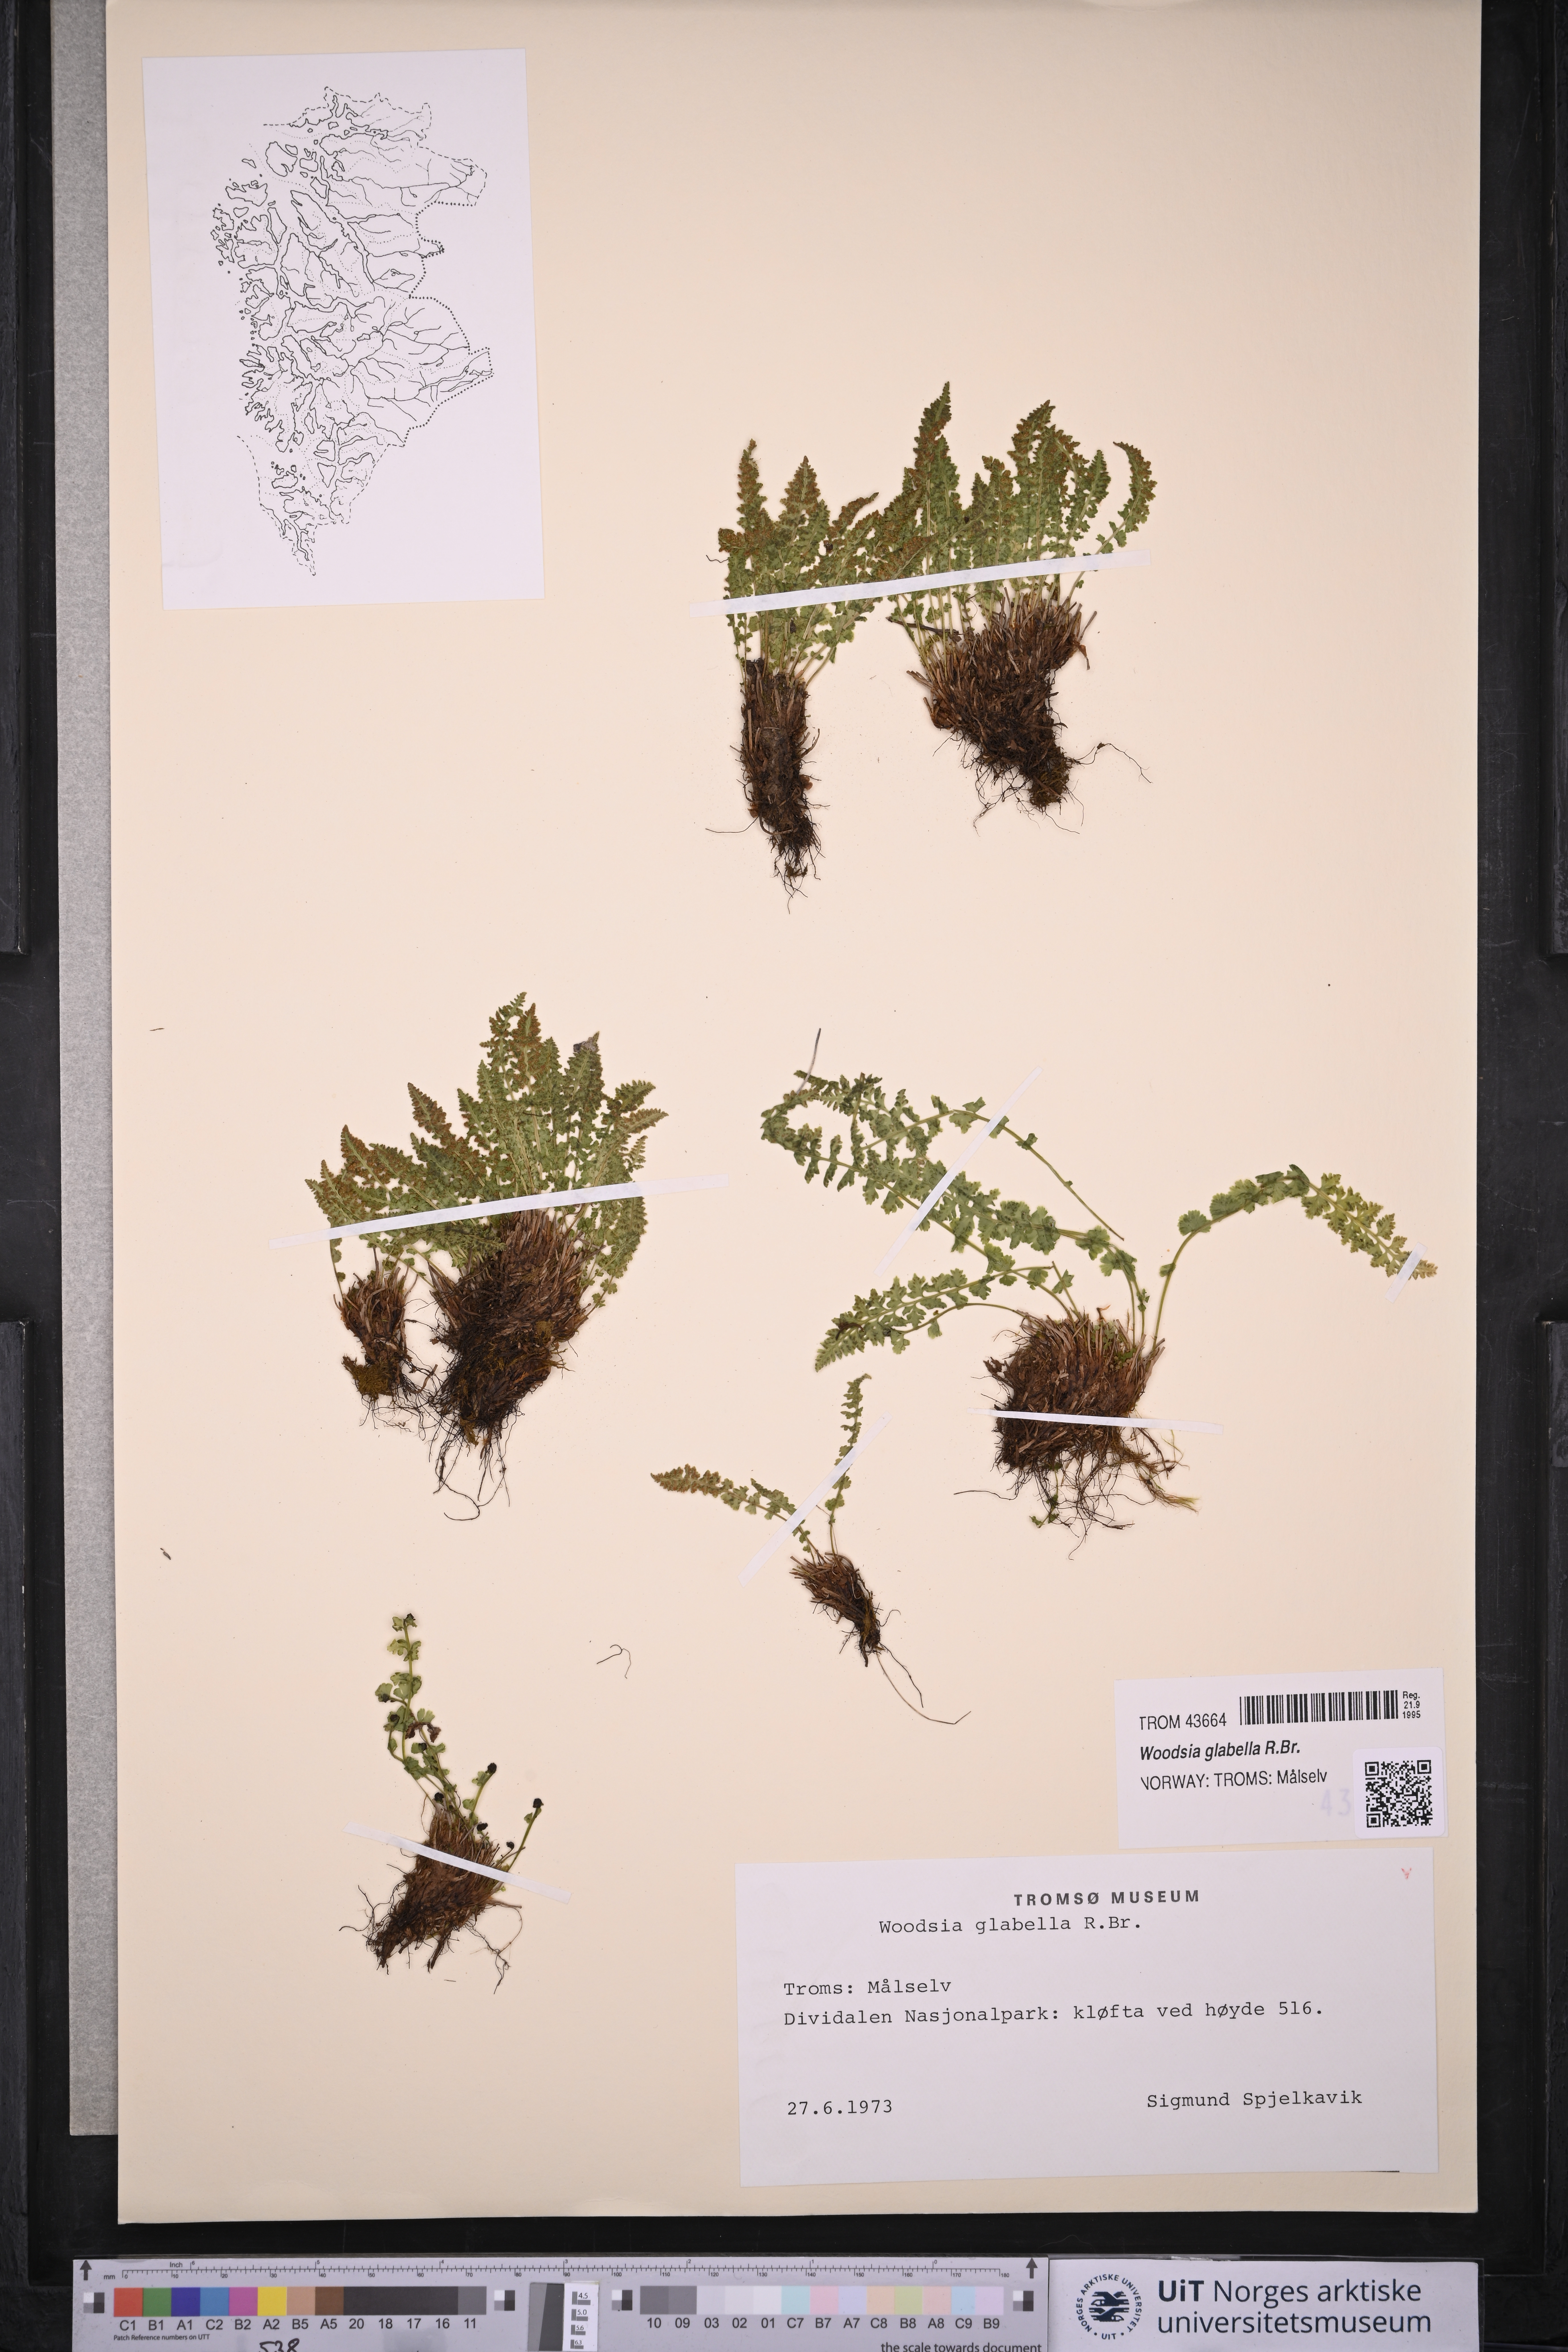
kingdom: Plantae
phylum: Tracheophyta
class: Polypodiopsida
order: Polypodiales
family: Woodsiaceae
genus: Woodsia
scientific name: Woodsia glabella
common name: Smooth woodsia
